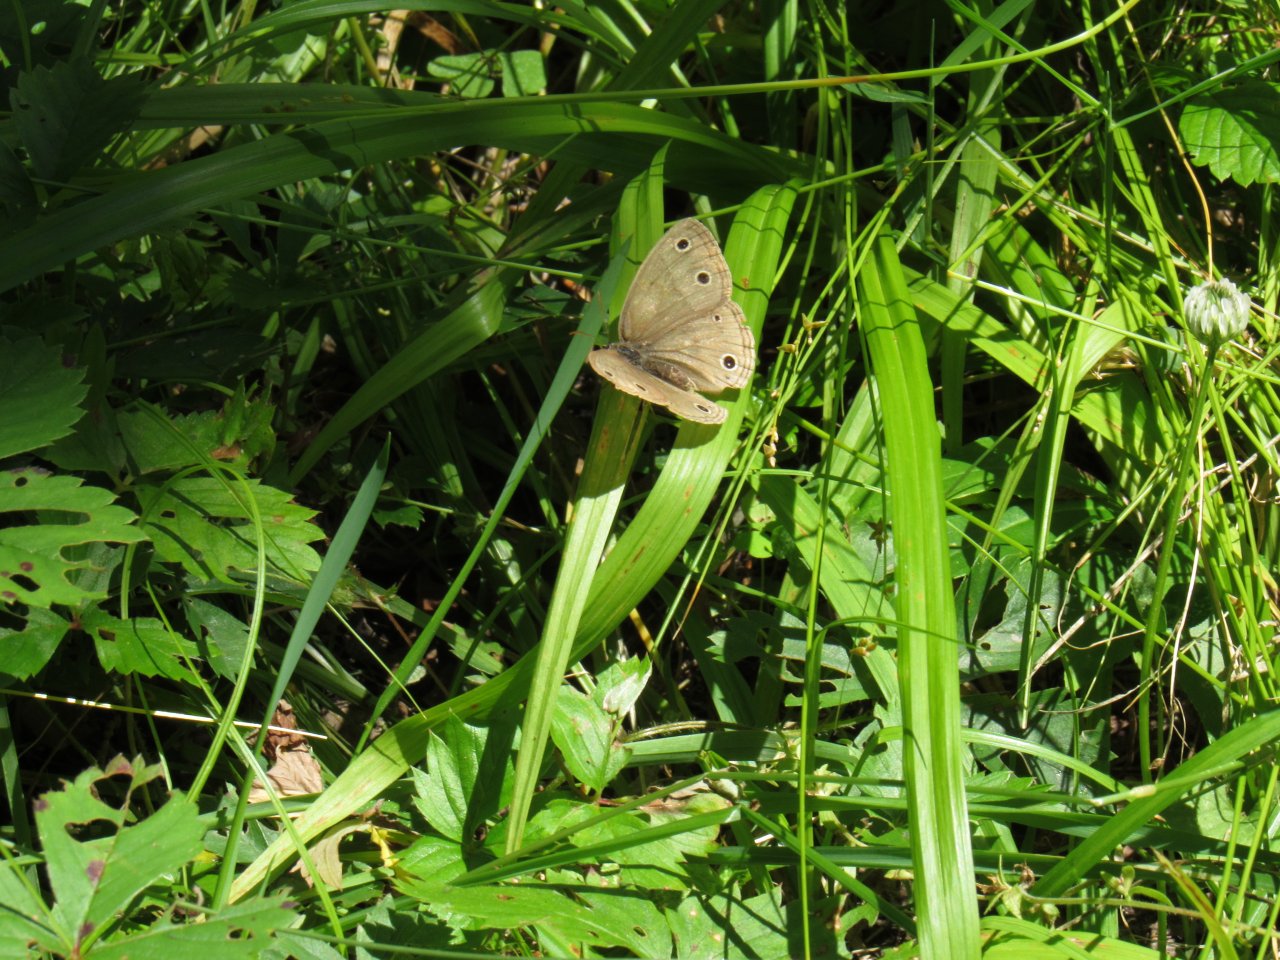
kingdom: Animalia
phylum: Arthropoda
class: Insecta
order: Lepidoptera
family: Nymphalidae
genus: Euptychia
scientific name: Euptychia cymela
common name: Little Wood Satyr
